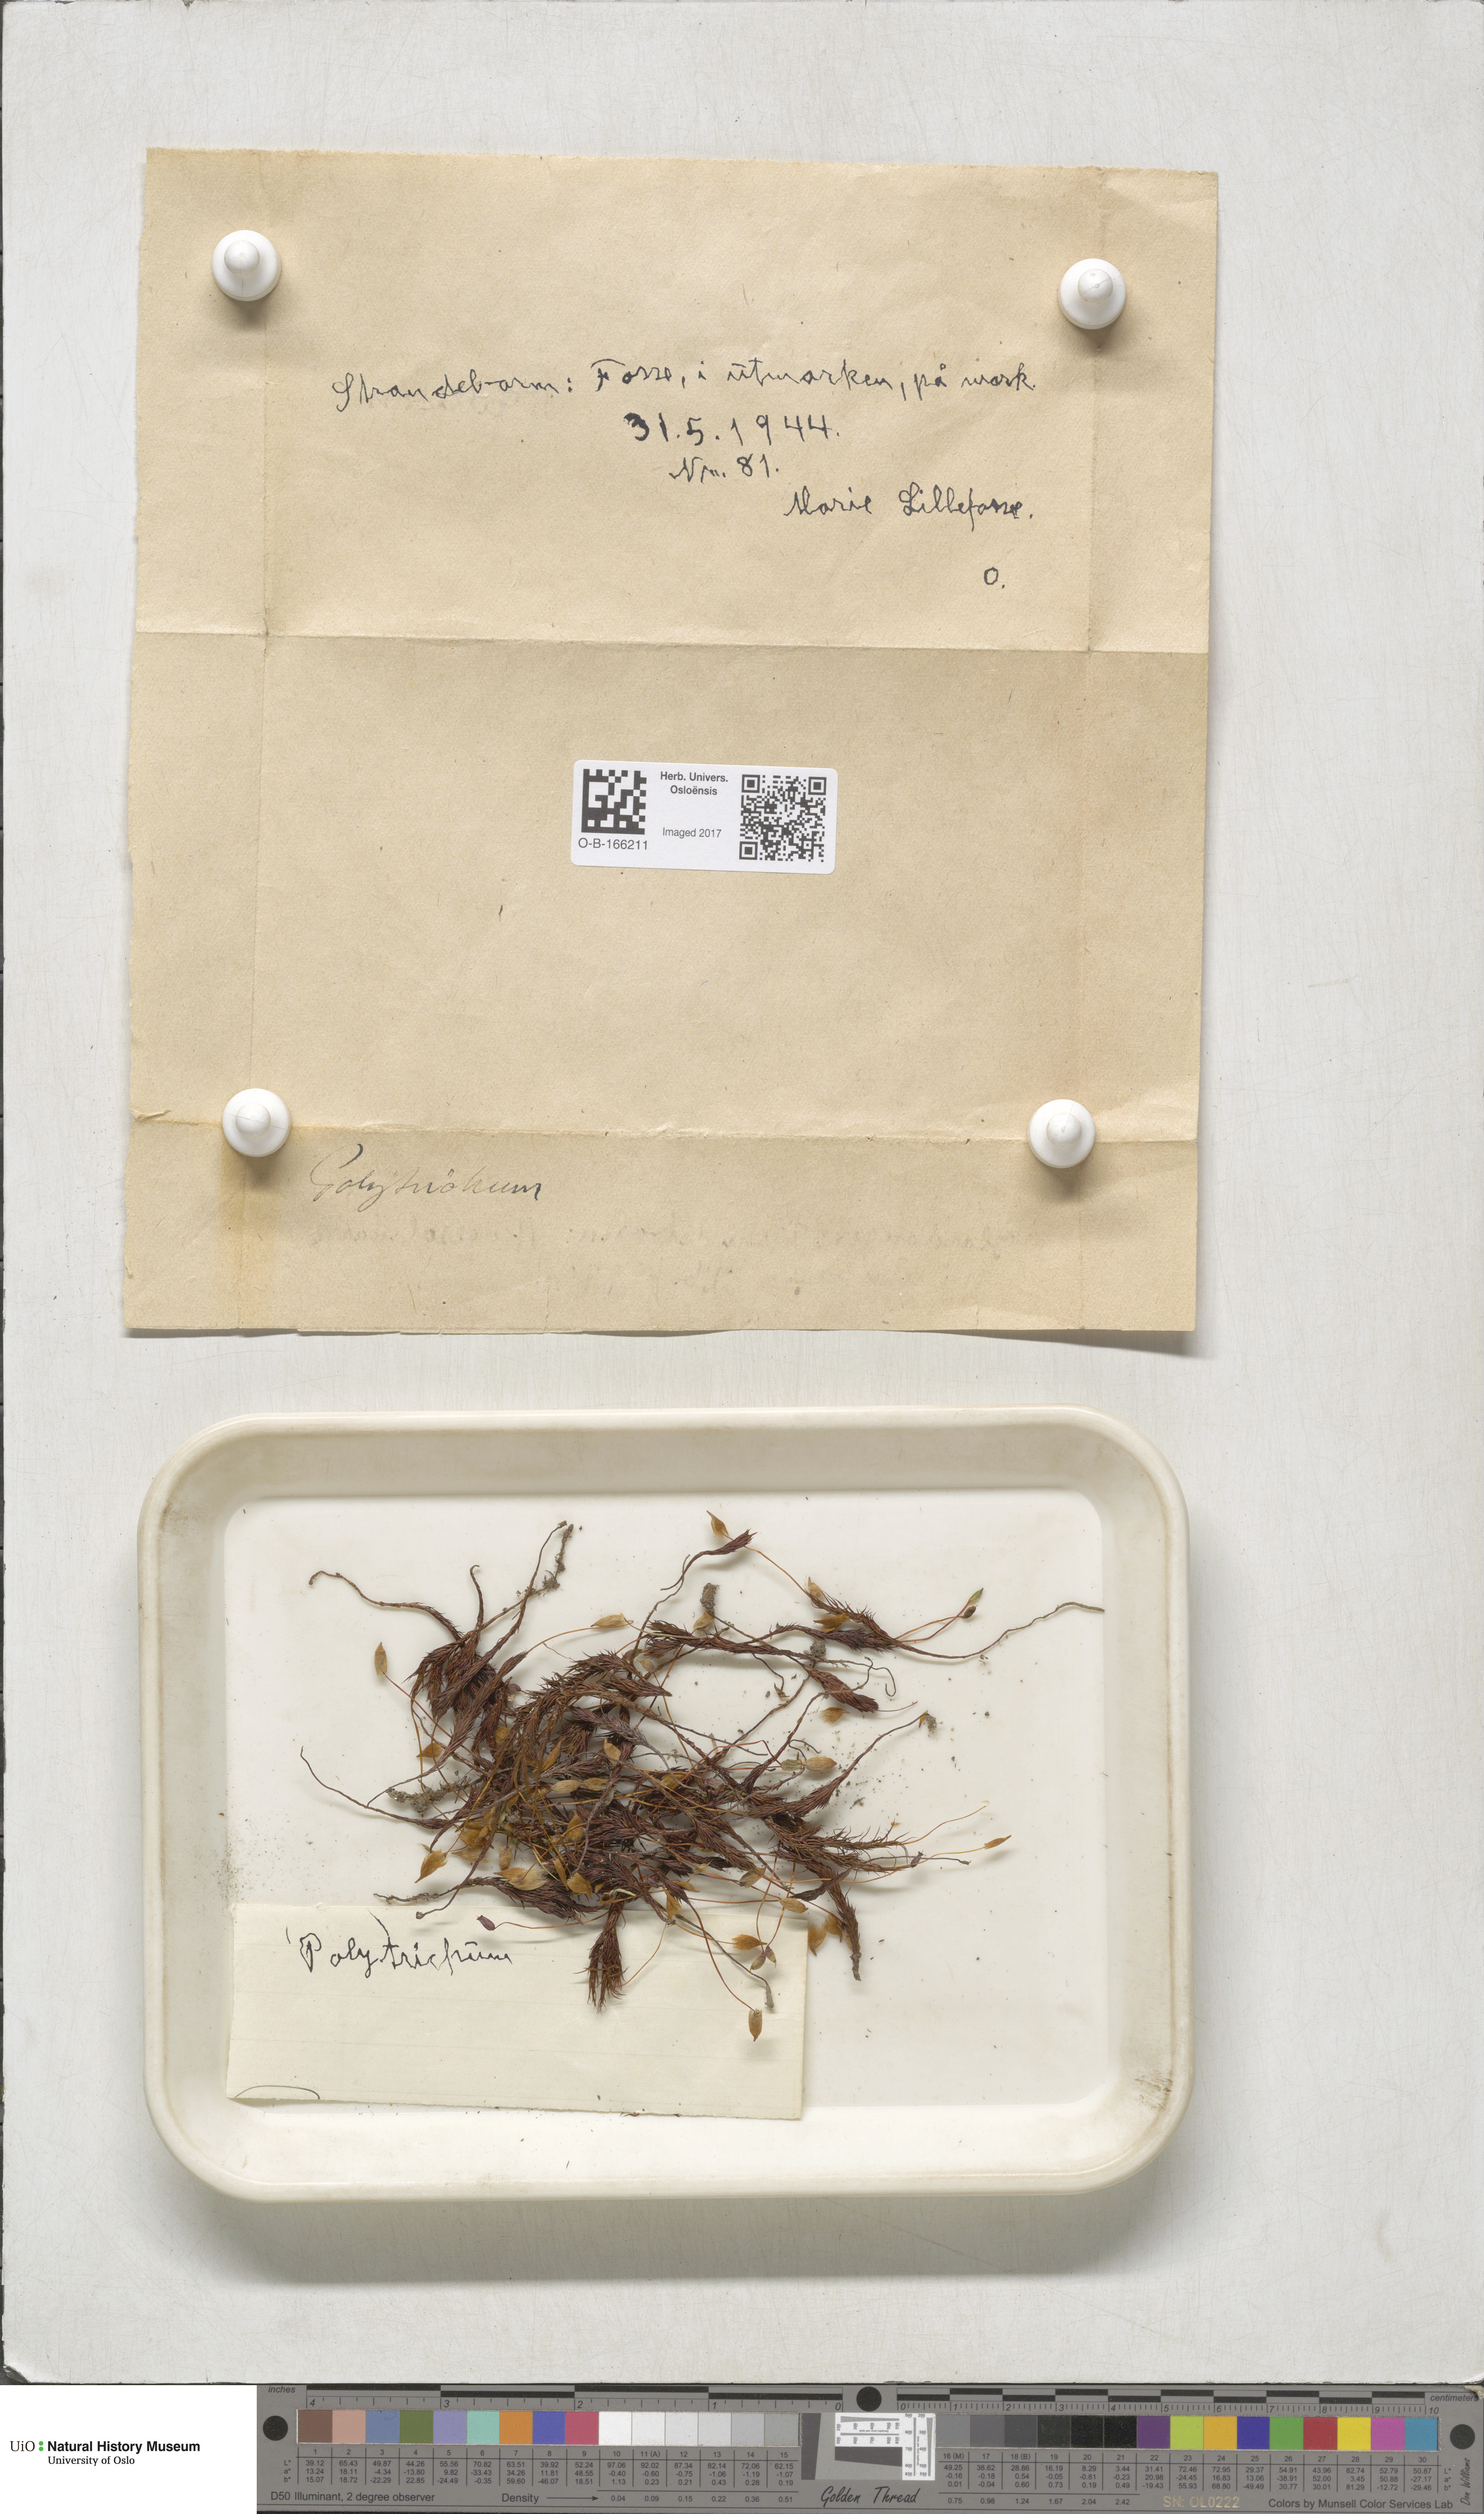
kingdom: Plantae
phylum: Bryophyta
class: Polytrichopsida
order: Polytrichales
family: Polytrichaceae
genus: Polytrichum
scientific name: Polytrichum
